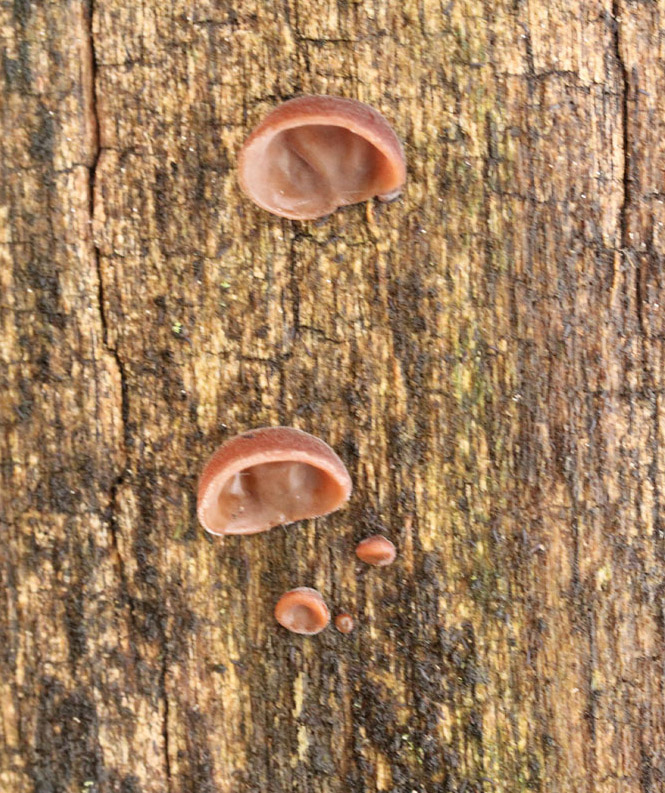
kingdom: Fungi
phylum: Basidiomycota
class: Agaricomycetes
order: Auriculariales
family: Auriculariaceae
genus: Auricularia
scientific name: Auricularia auricula-judae
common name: almindelig judasøre
